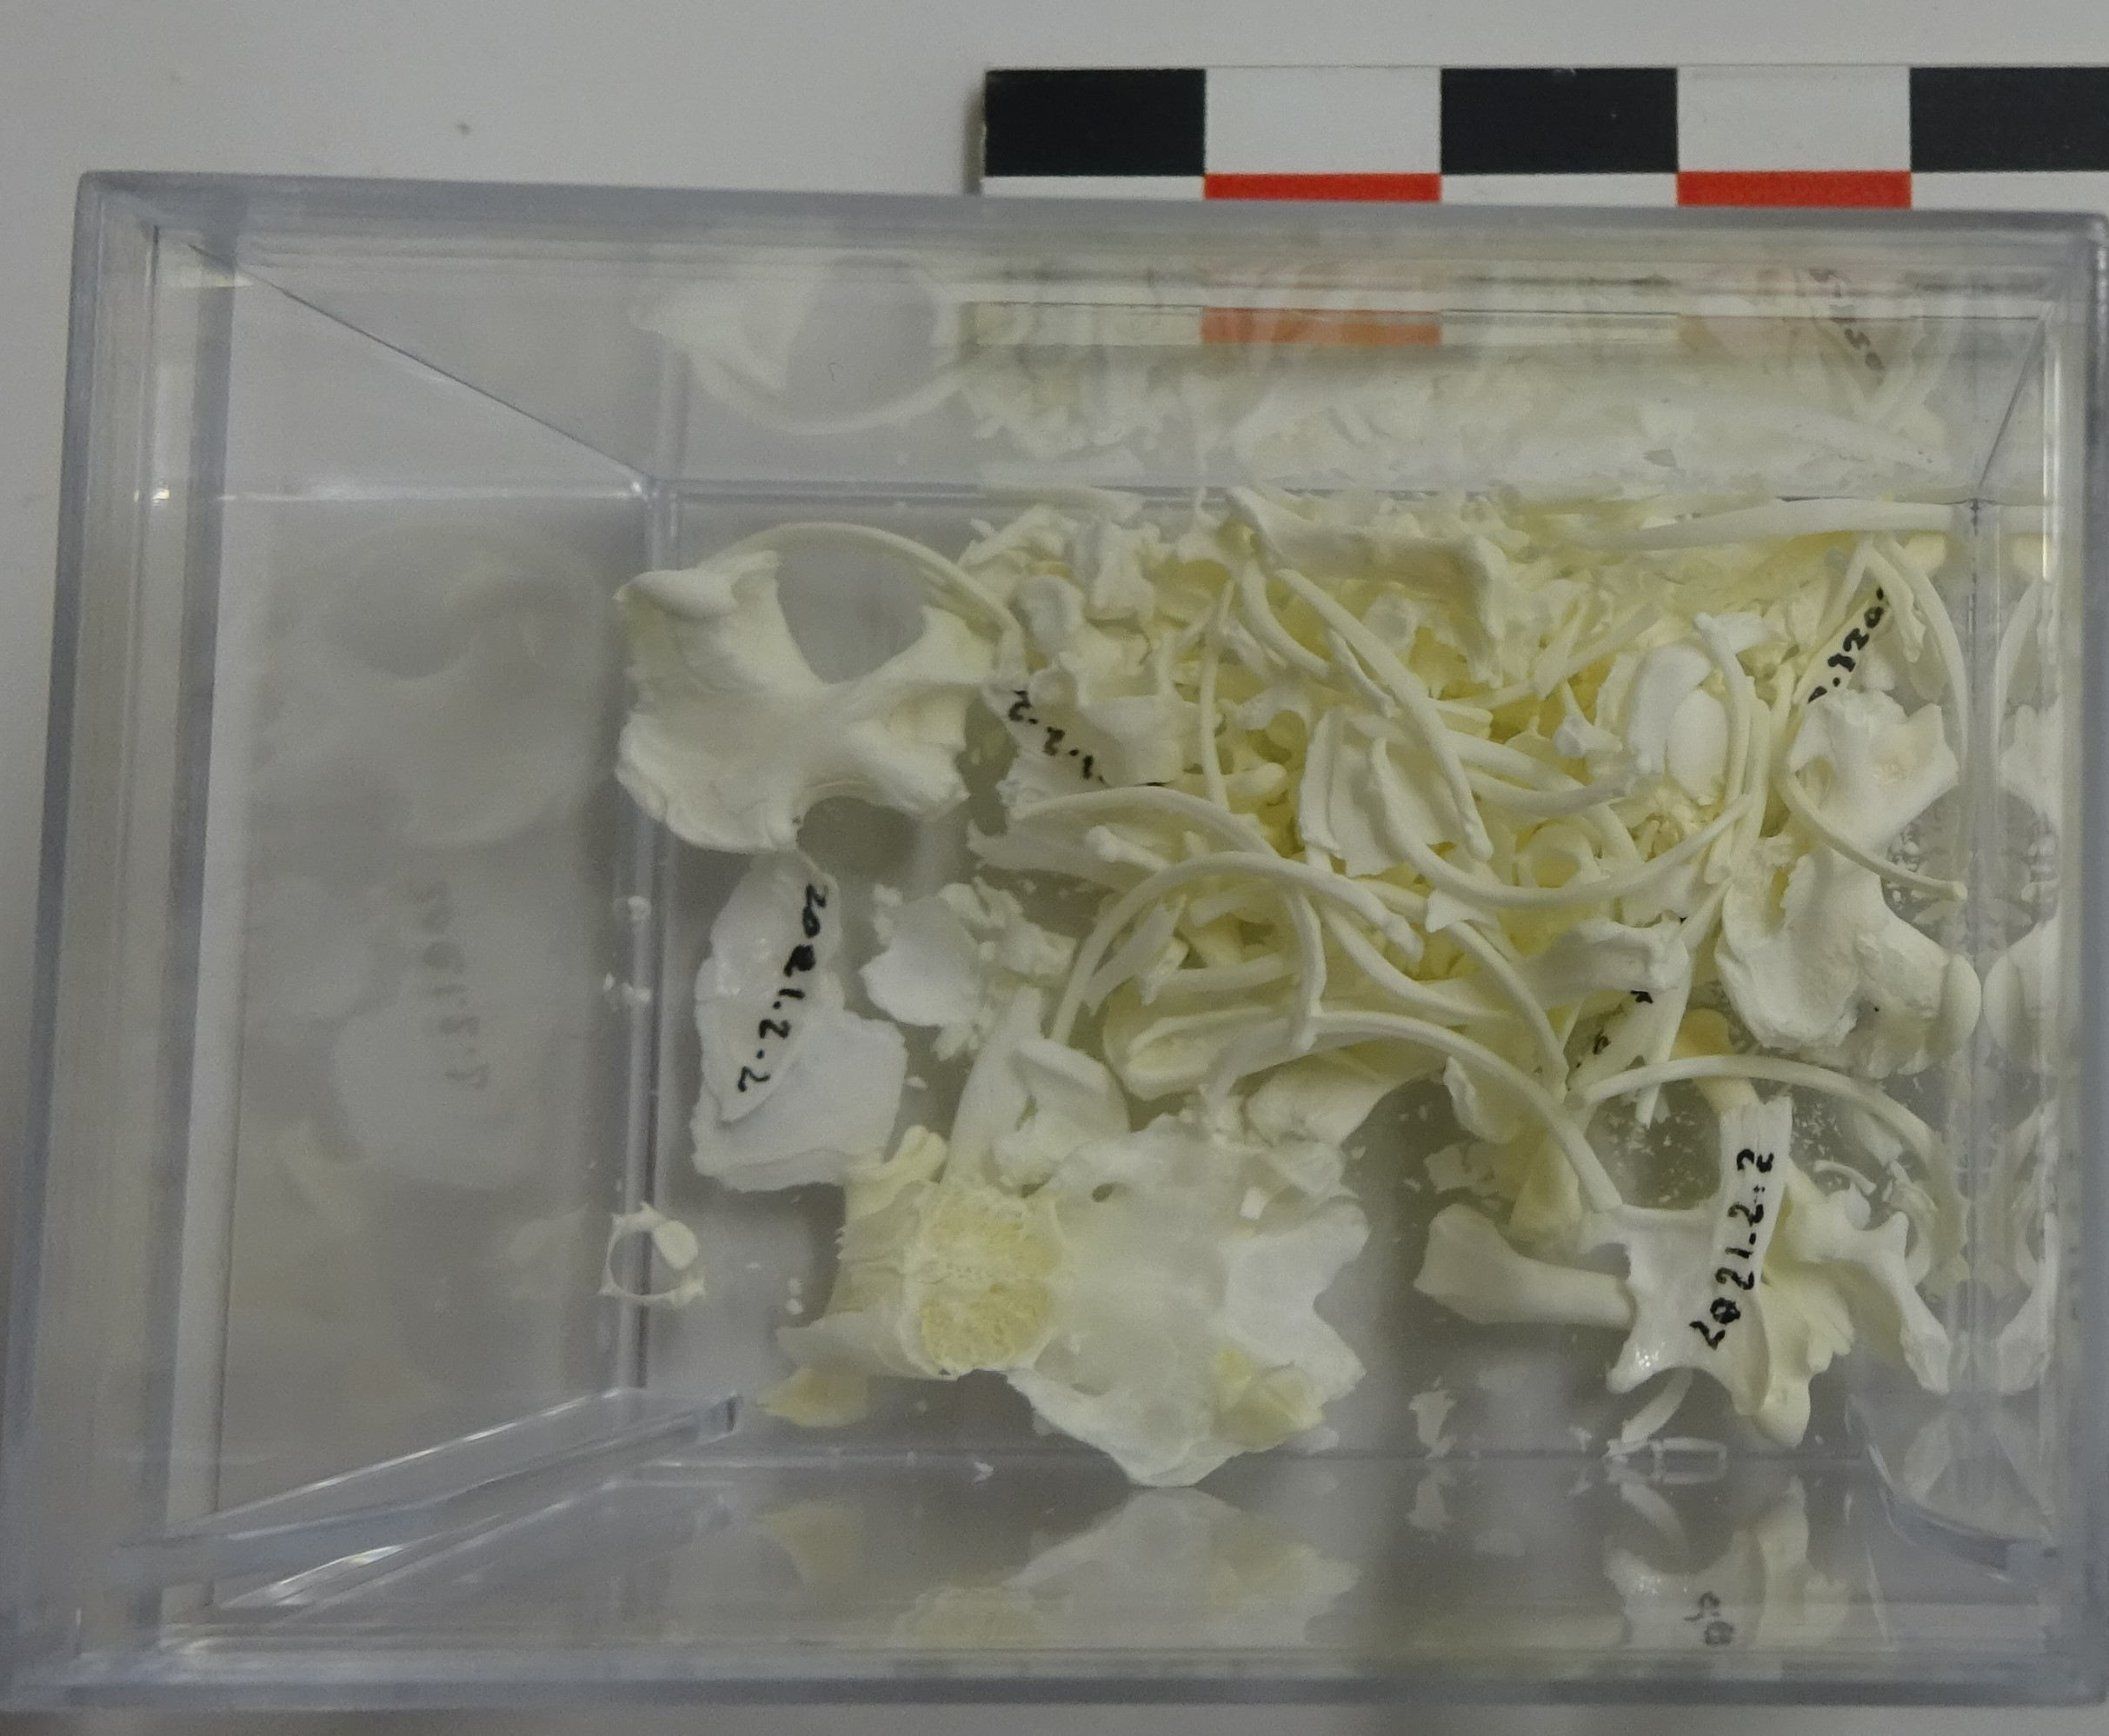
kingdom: Animalia
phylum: Chordata
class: Mammalia
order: Soricomorpha
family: Talpidae
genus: Talpa
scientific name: Talpa europaea
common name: European mole
